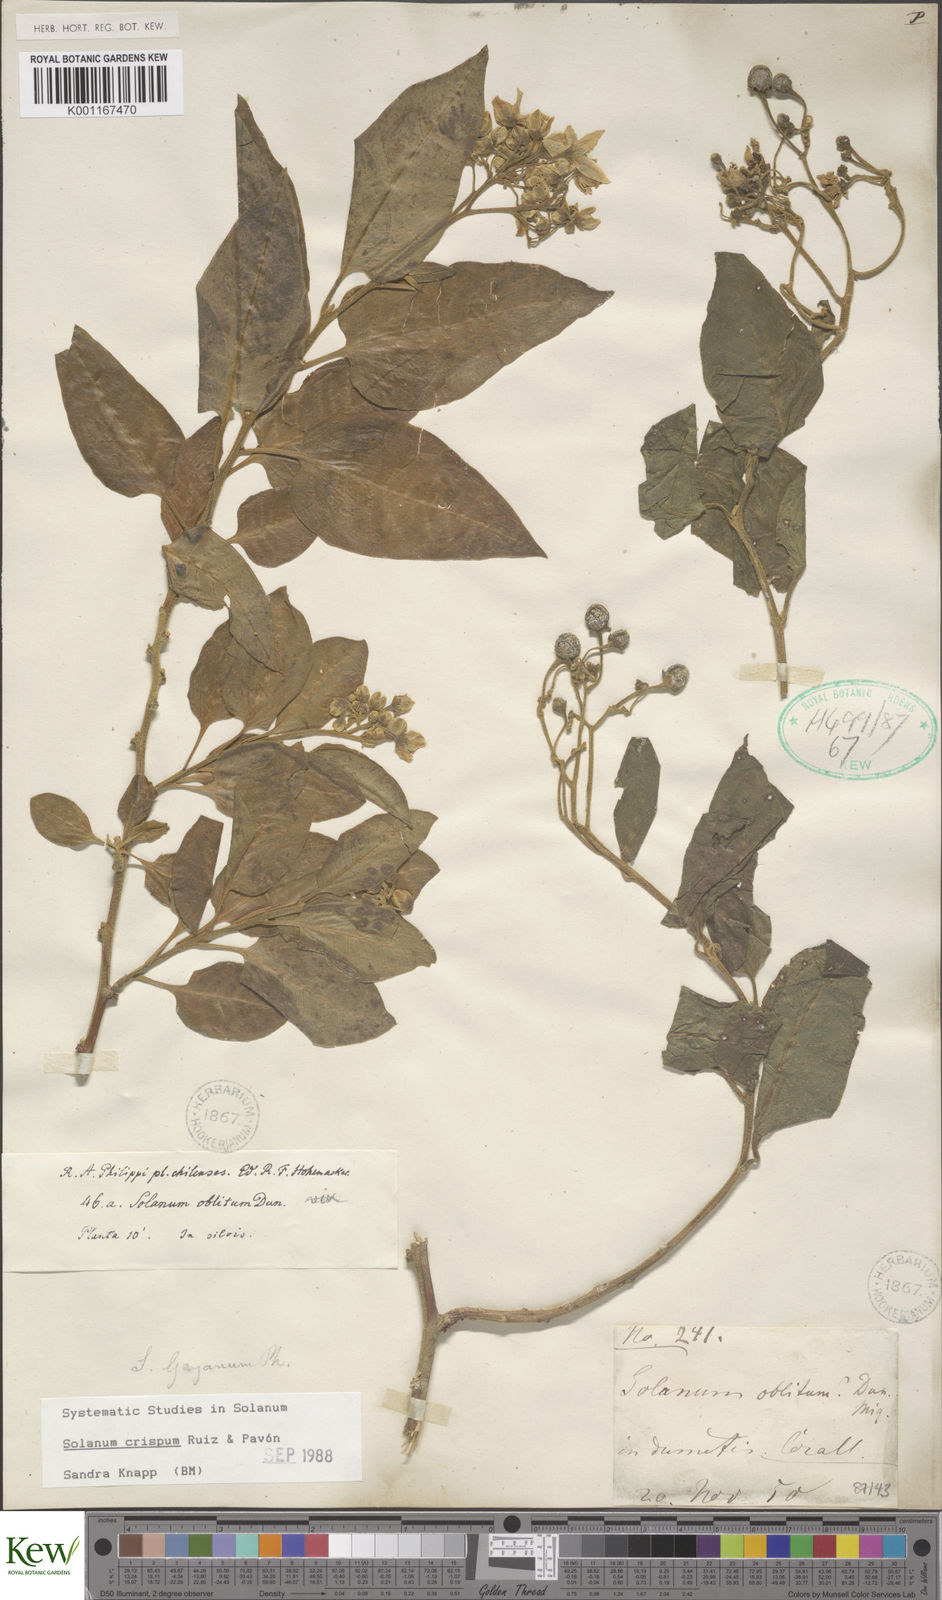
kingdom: Plantae
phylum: Tracheophyta
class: Magnoliopsida
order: Solanales
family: Solanaceae
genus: Solanum
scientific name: Solanum crispum
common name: Chilean nightshade
